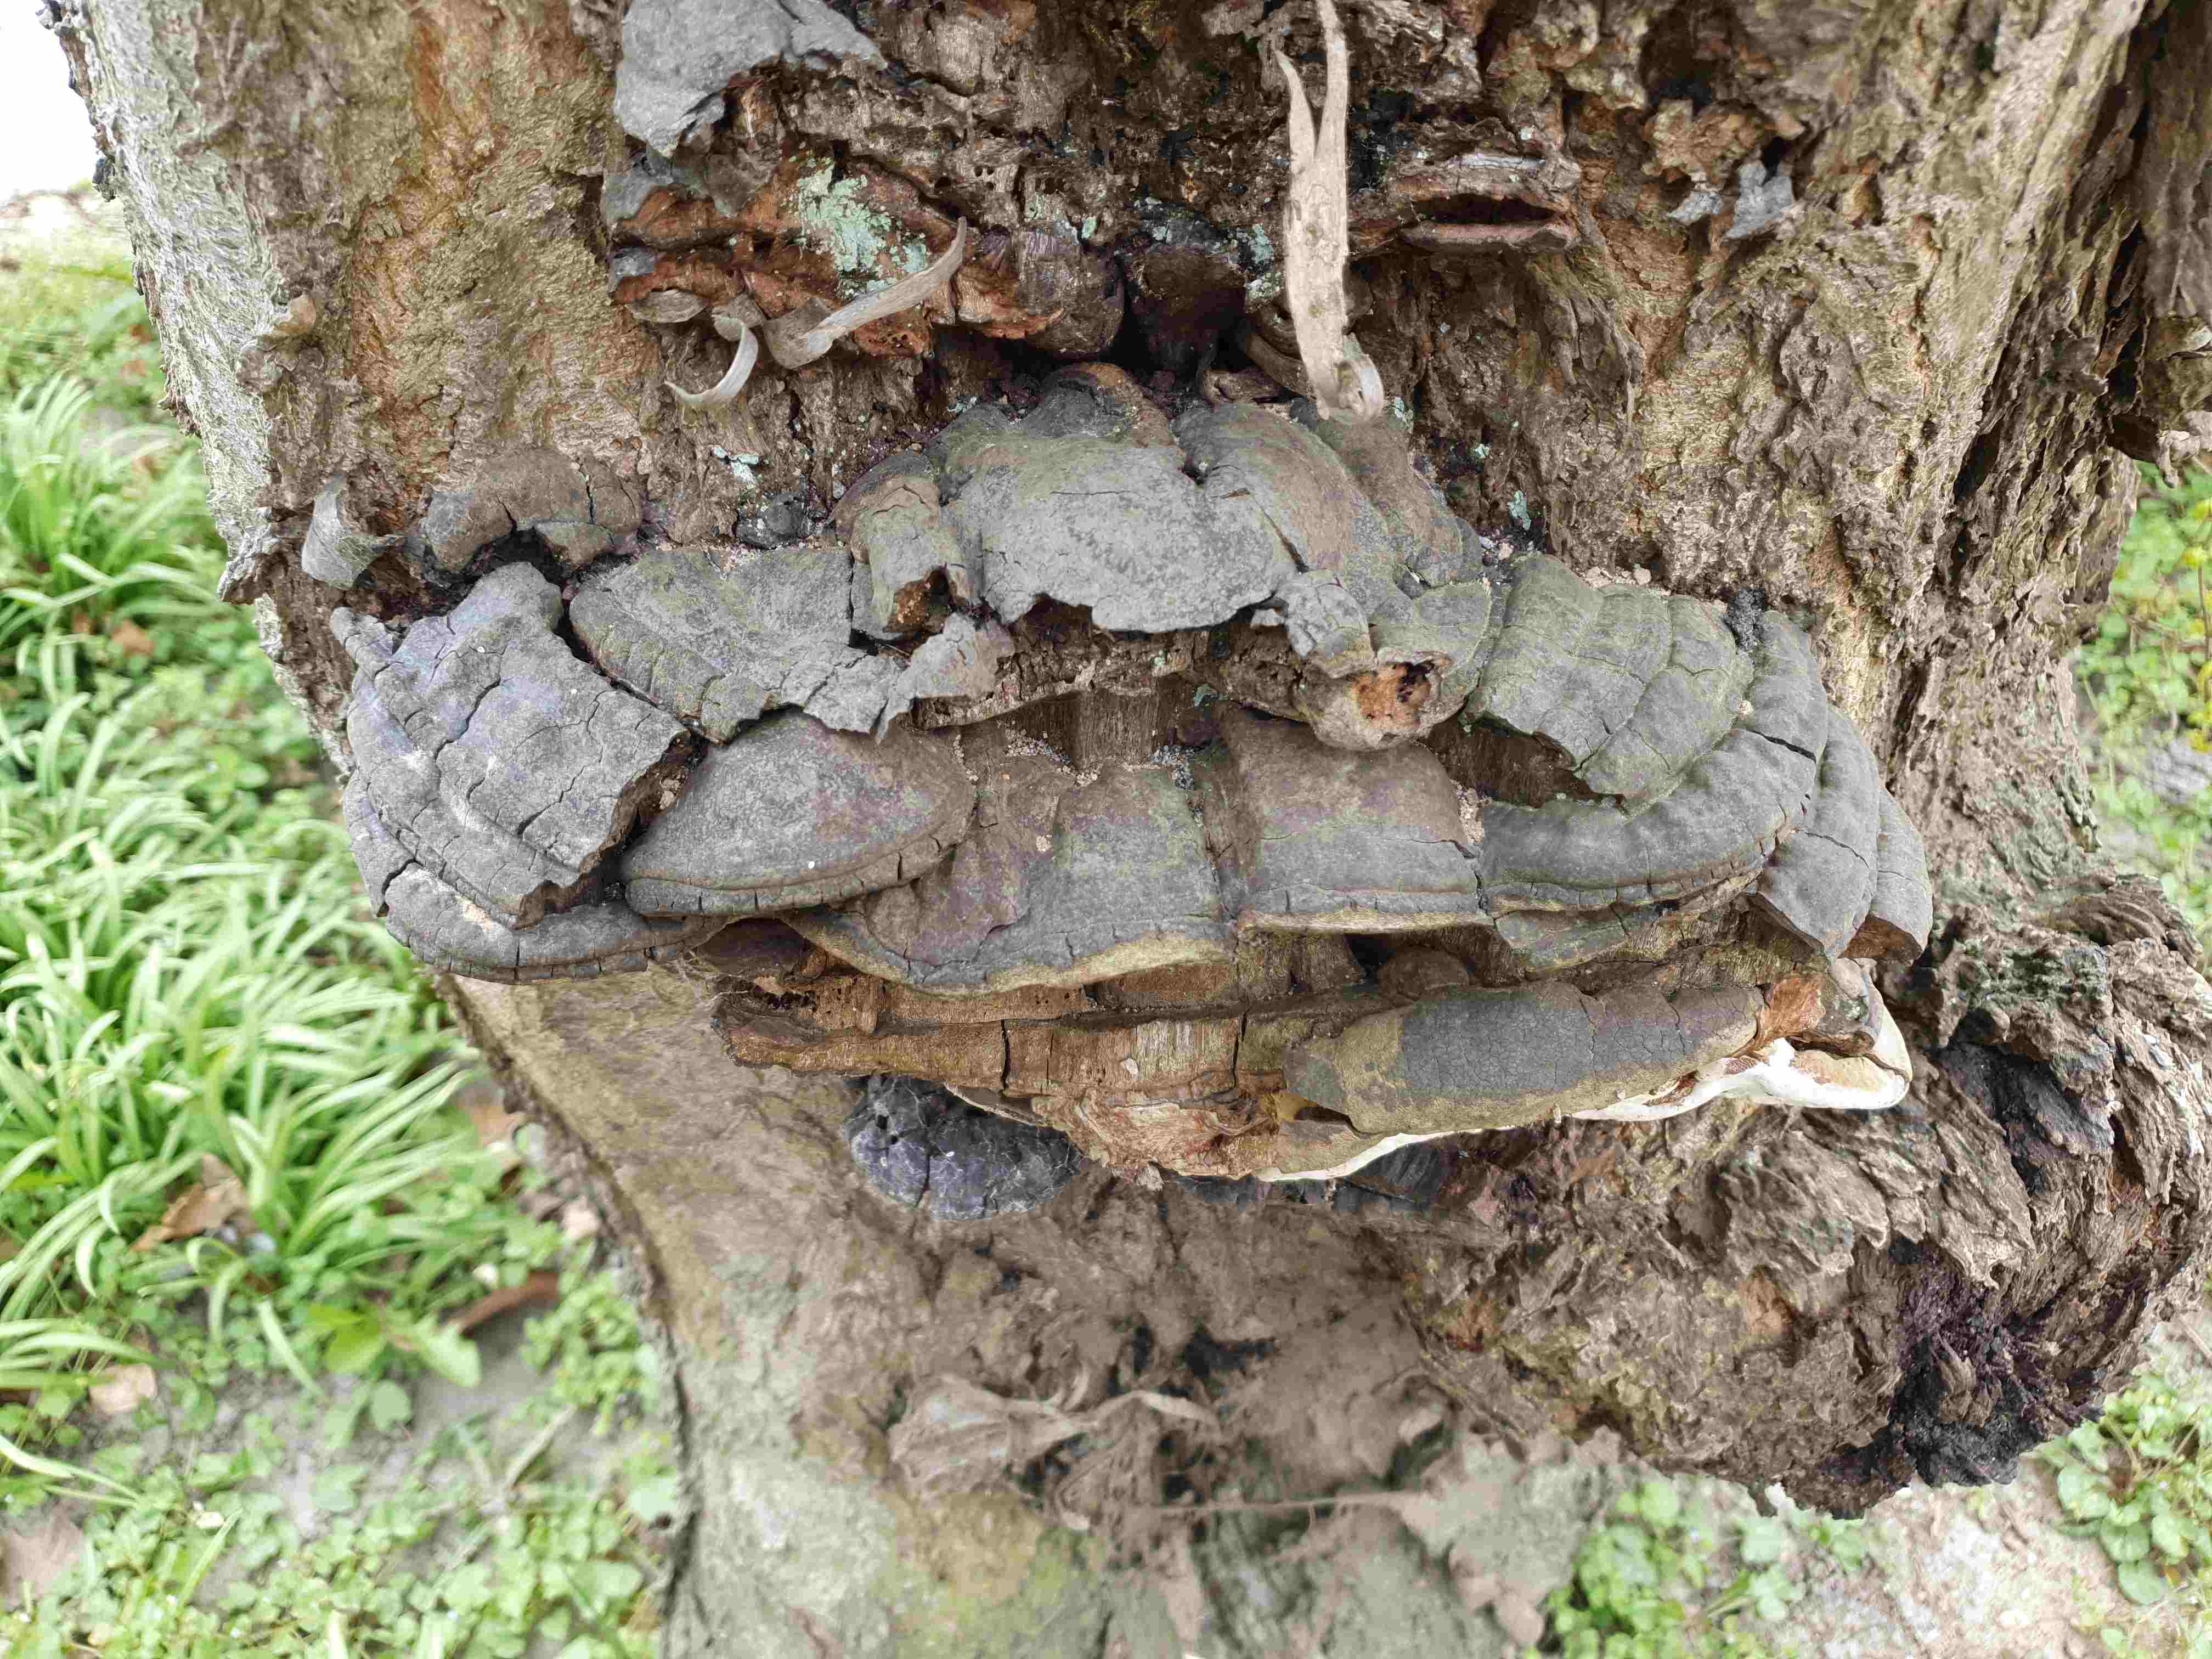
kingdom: Fungi
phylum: Basidiomycota
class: Agaricomycetes
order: Hymenochaetales
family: Hymenochaetaceae
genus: Phellinus
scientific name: Phellinus pomaceus
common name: blomme-ildporesvamp
